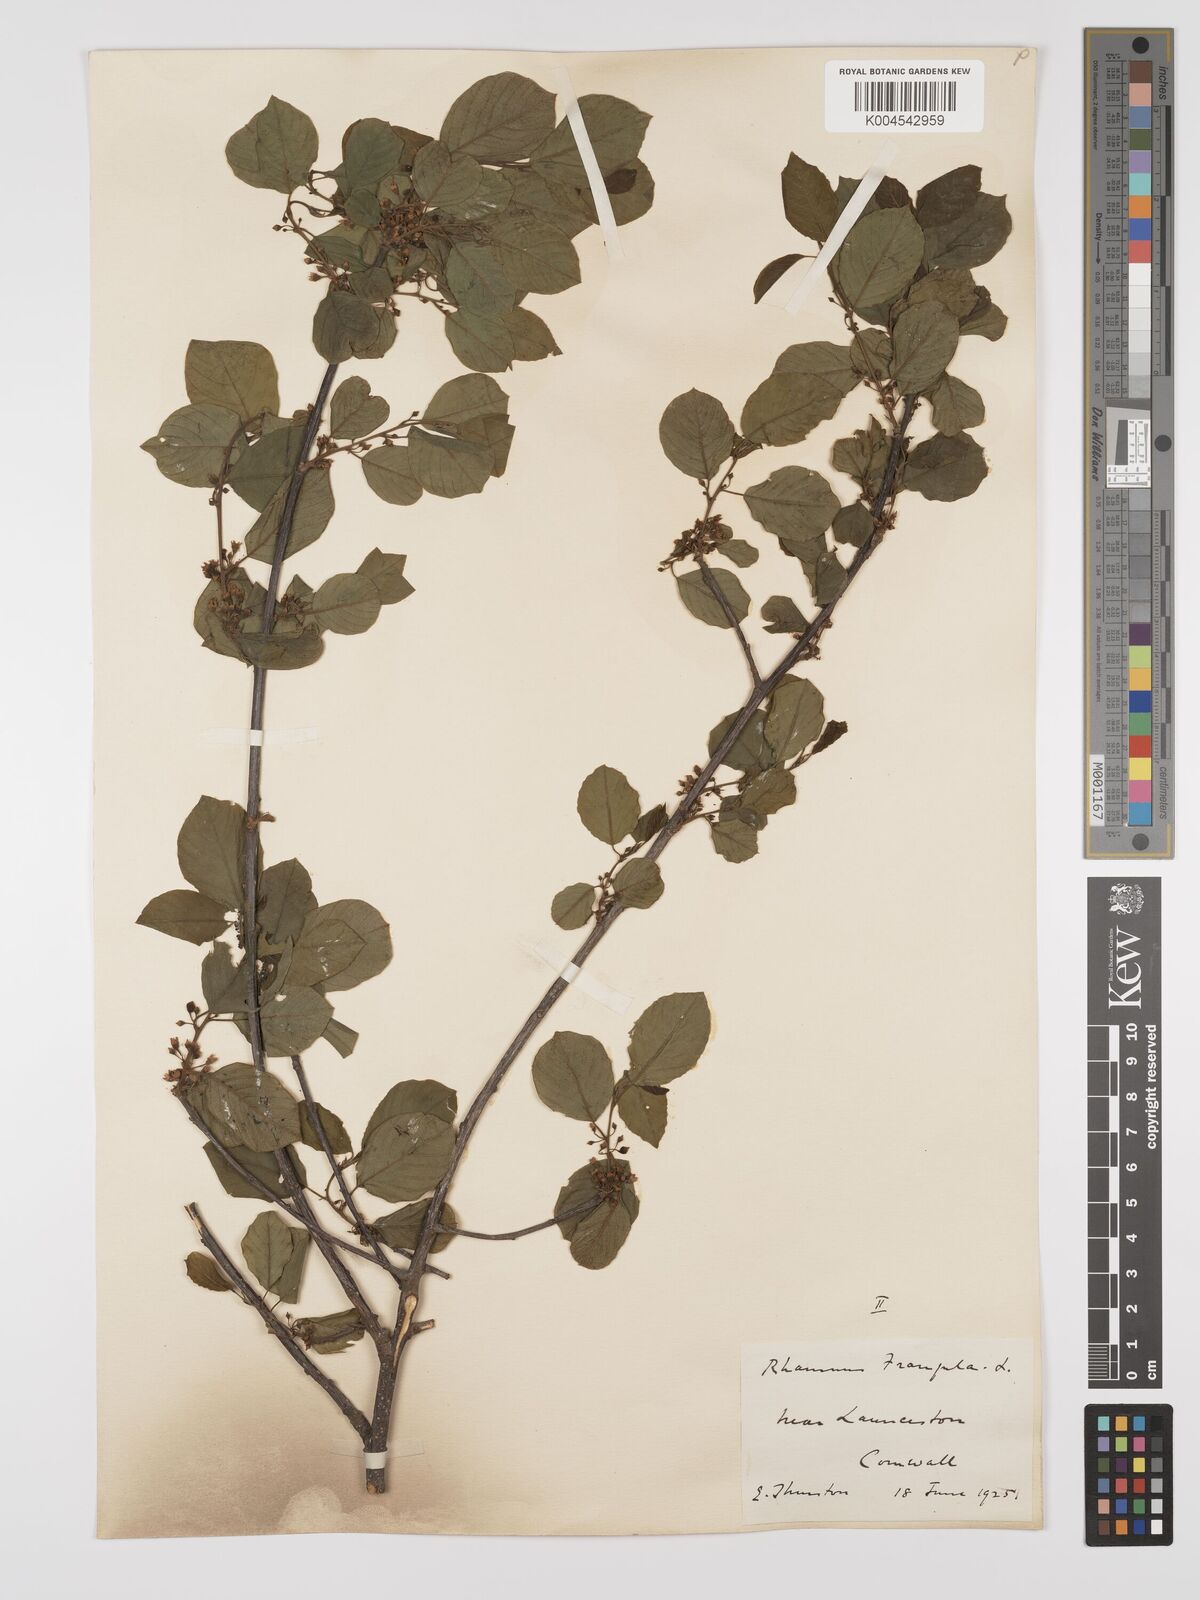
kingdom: Plantae
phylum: Tracheophyta
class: Magnoliopsida
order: Rosales
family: Rhamnaceae
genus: Frangula
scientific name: Frangula alnus
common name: Alder buckthorn
